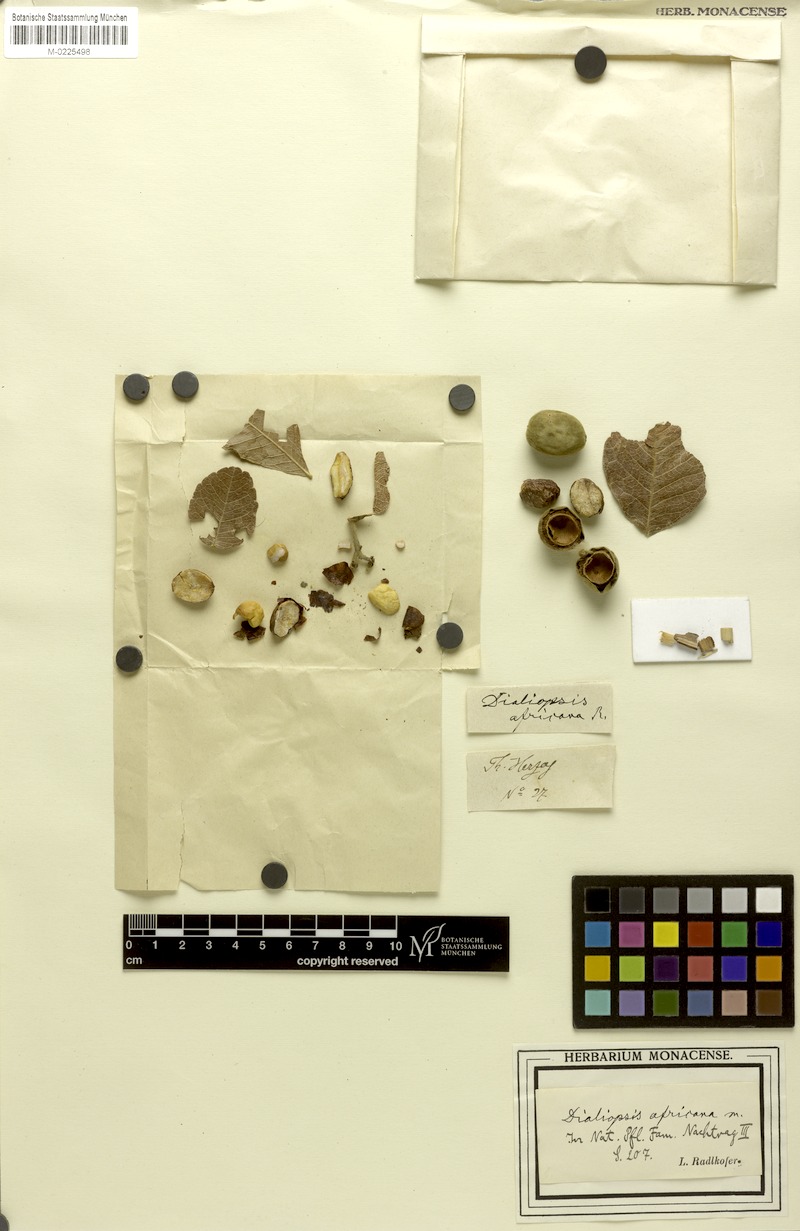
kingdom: Plantae
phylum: Tracheophyta
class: Magnoliopsida
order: Sapindales
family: Sapindaceae
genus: Zanha
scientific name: Zanha africana
